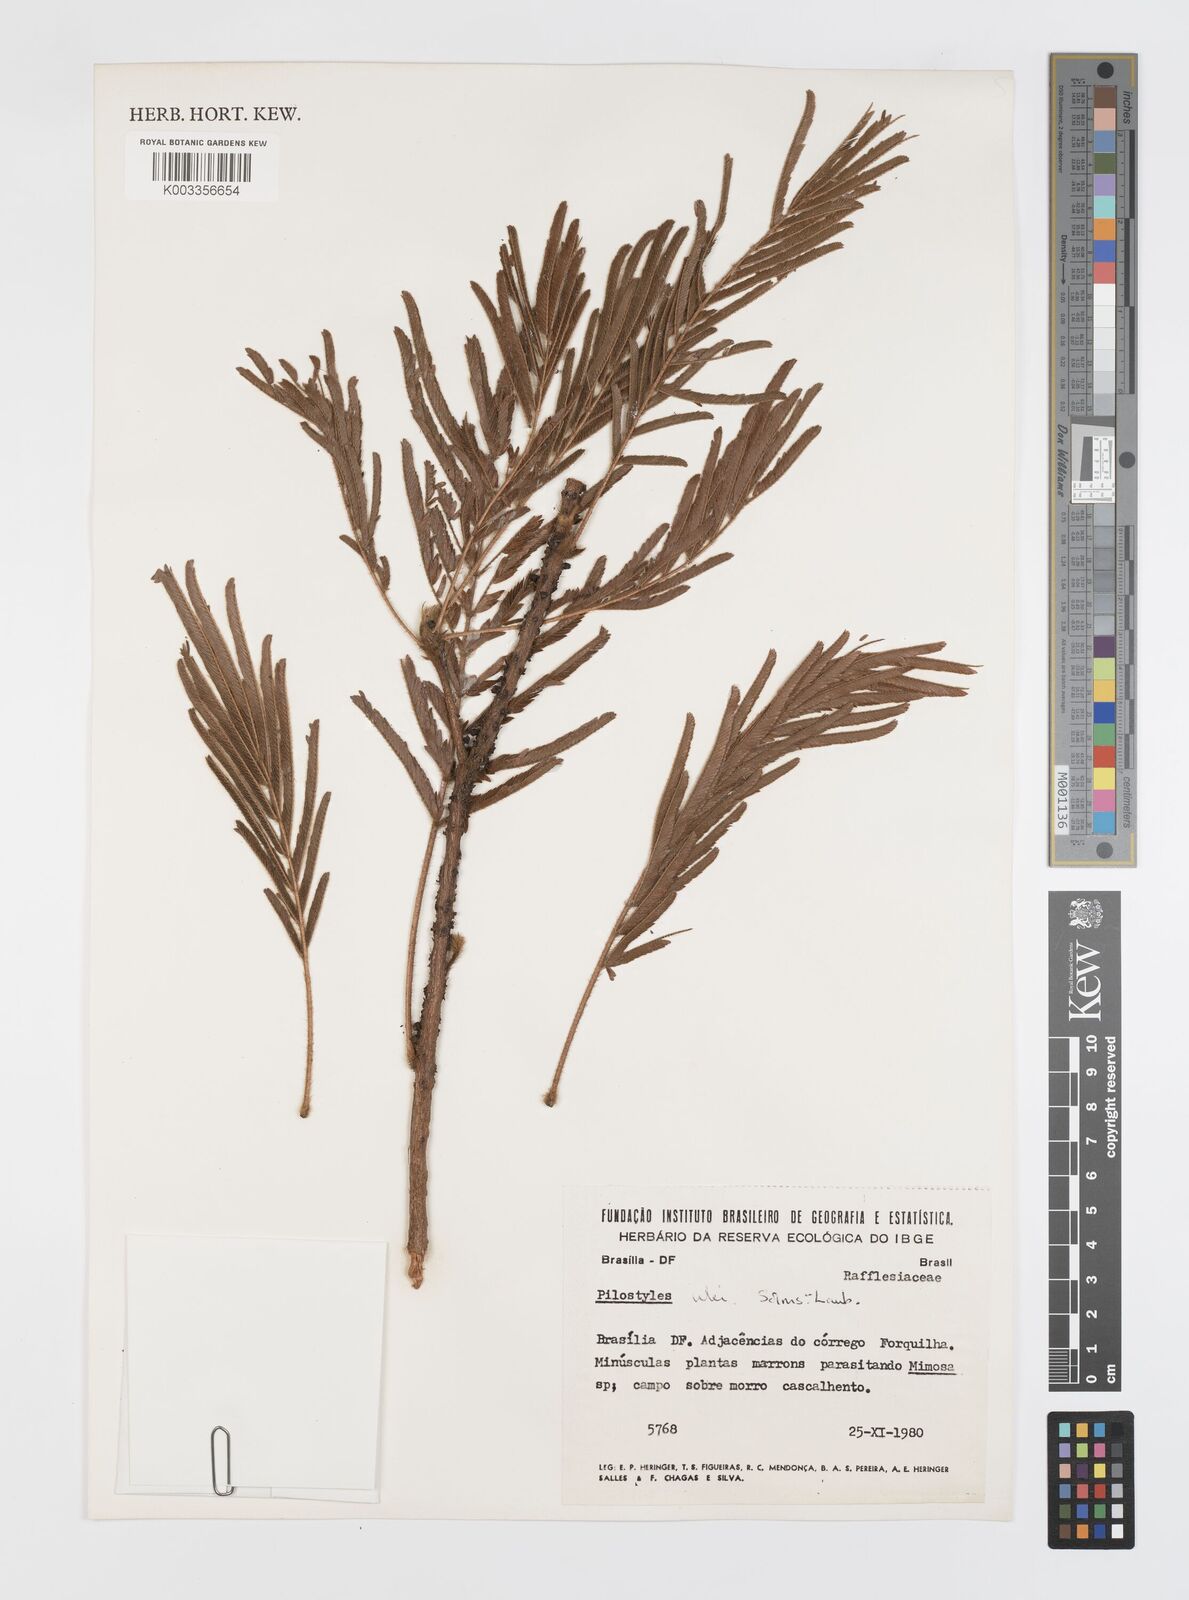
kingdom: Plantae
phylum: Tracheophyta
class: Magnoliopsida
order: Cucurbitales
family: Apodanthaceae
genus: Pilostyles
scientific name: Pilostyles blanchetii
